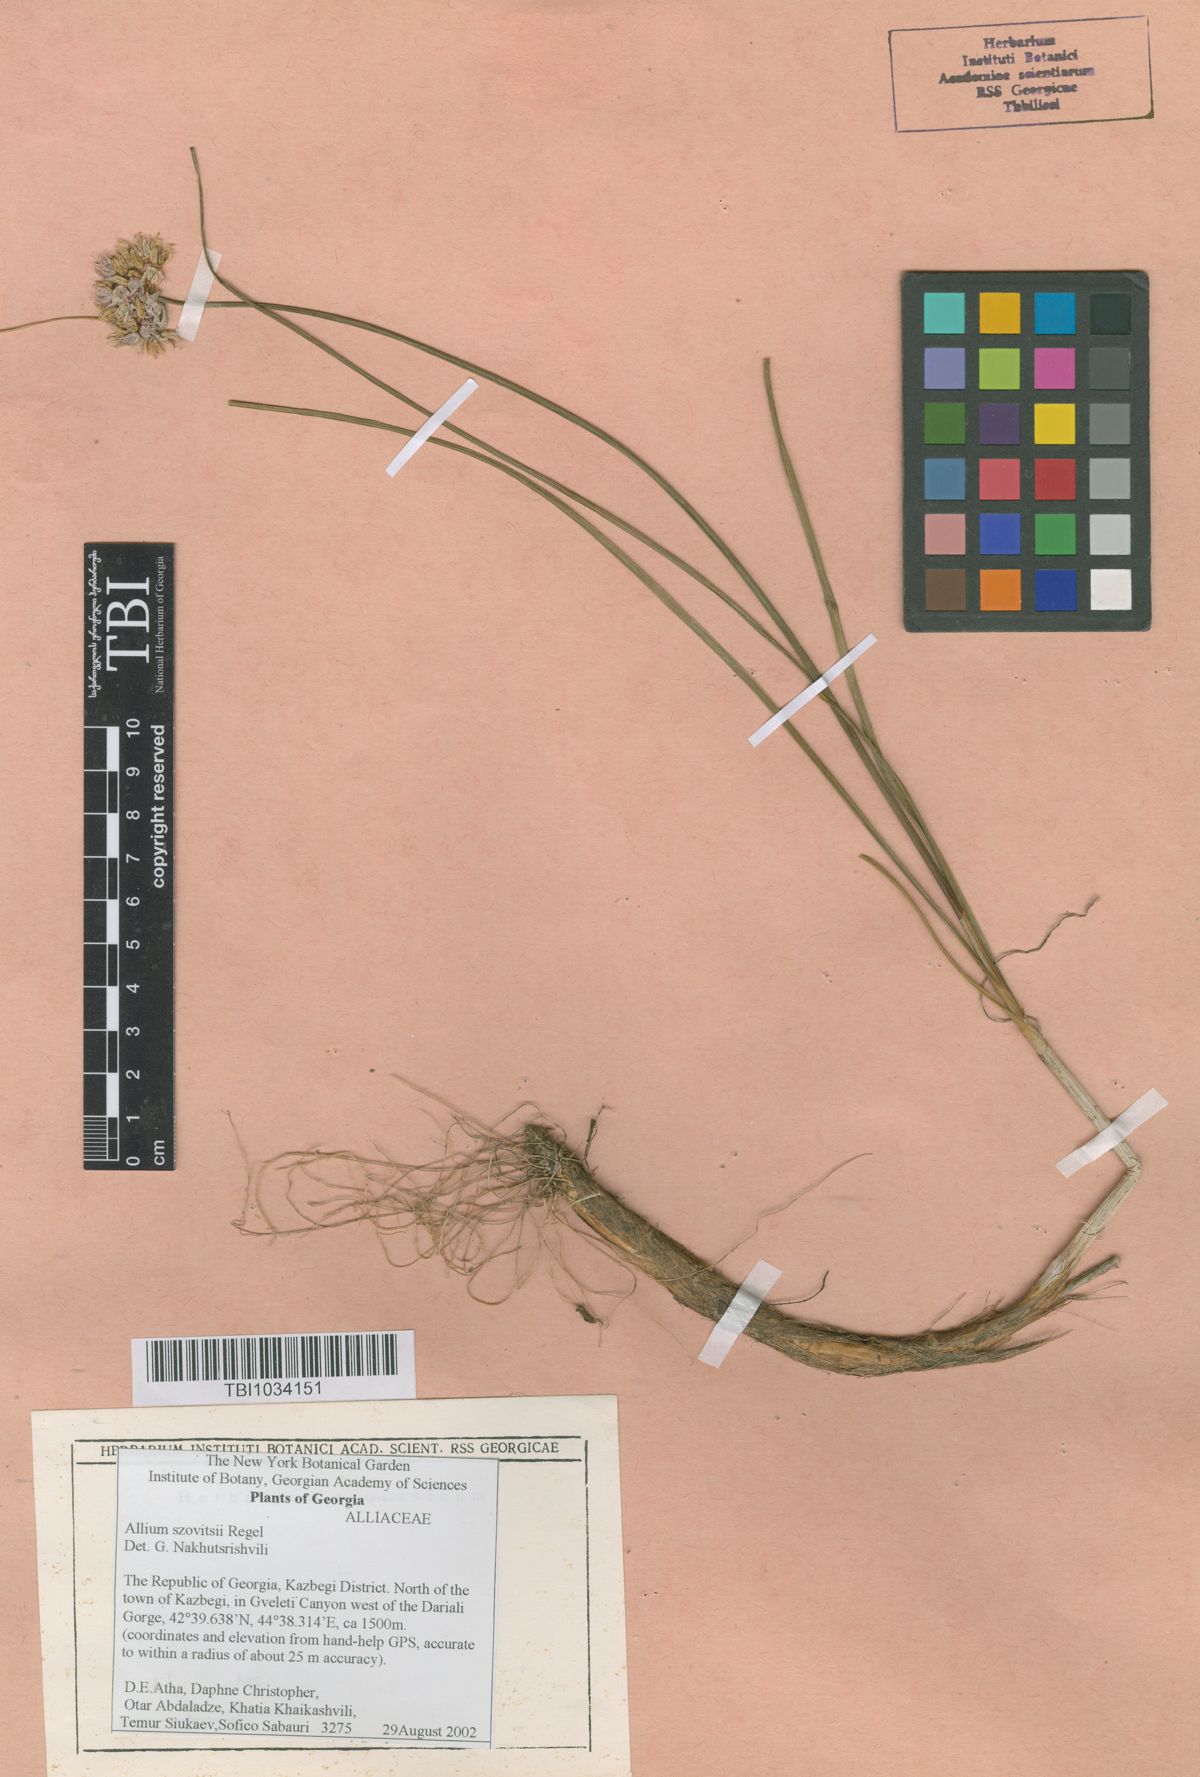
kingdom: Plantae
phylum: Tracheophyta
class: Liliopsida
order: Asparagales
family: Amaryllidaceae
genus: Allium
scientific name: Allium szovitsii
